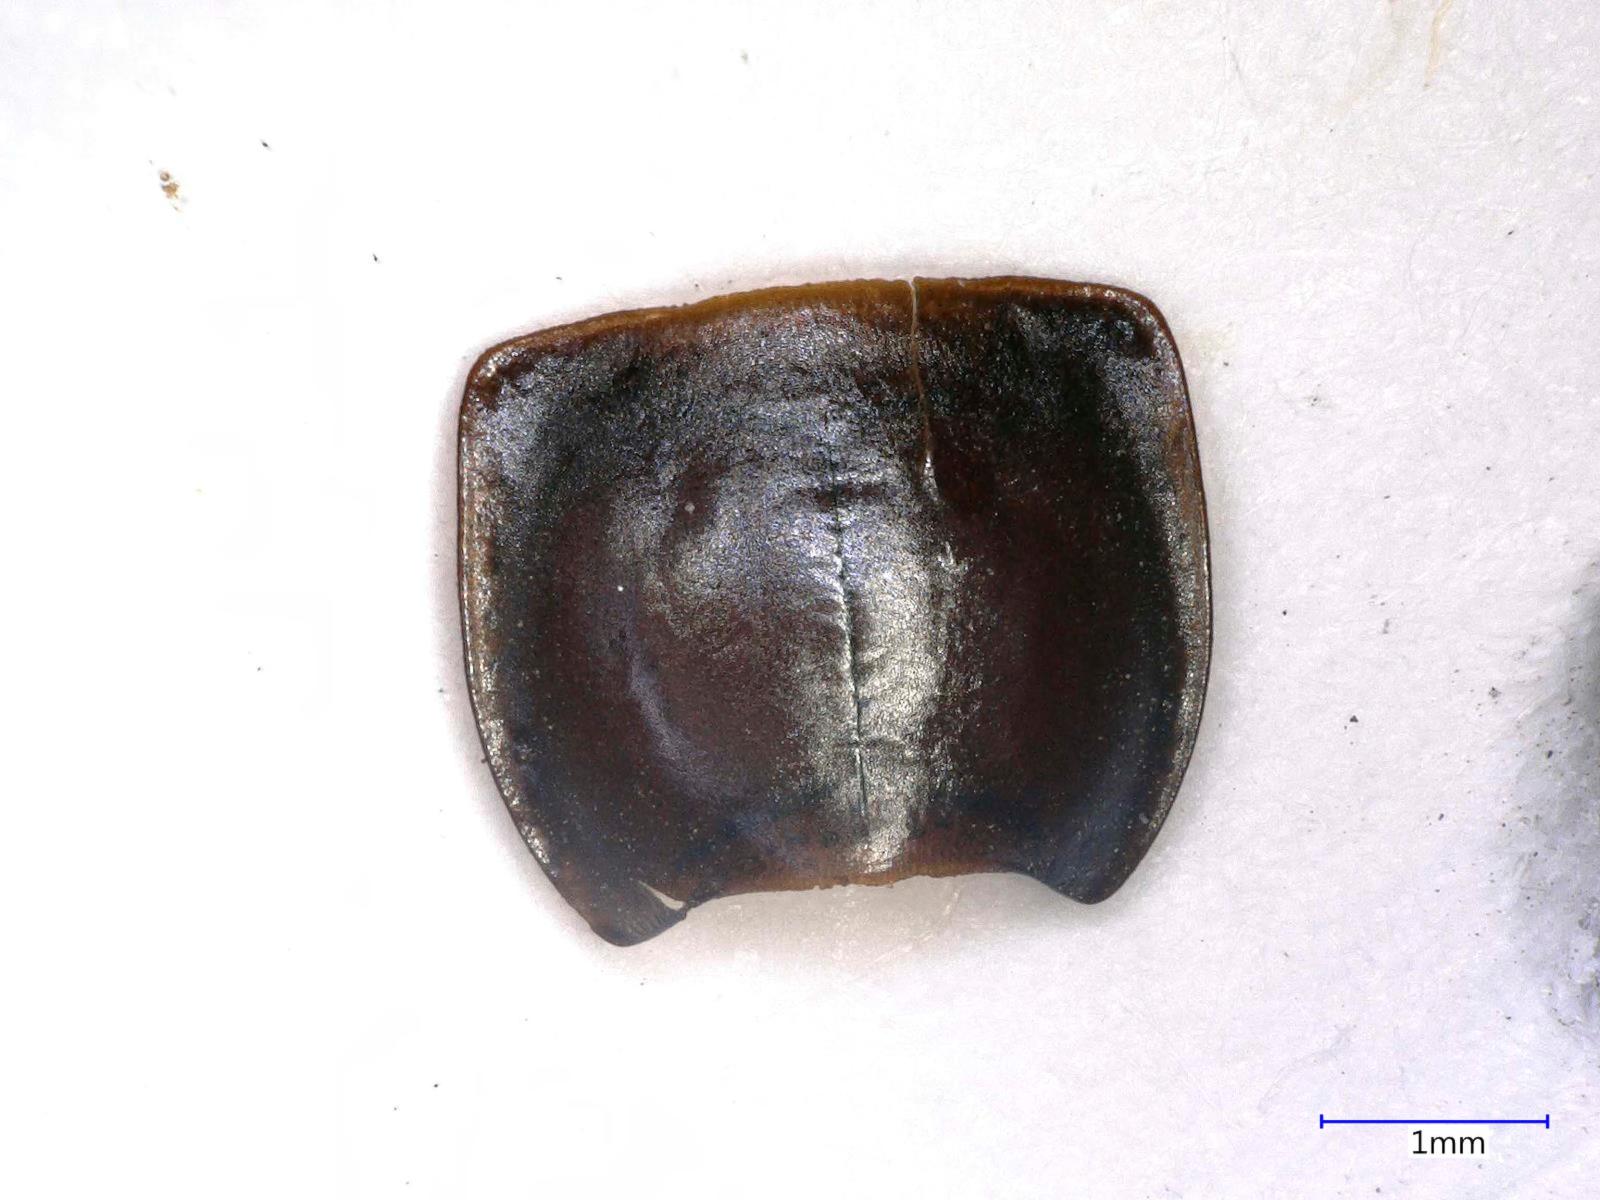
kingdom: Animalia
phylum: Arthropoda
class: Insecta
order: Coleoptera
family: Carabidae
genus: Calathus
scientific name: Calathus ruficollis
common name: Red-collared harp ground beetle
